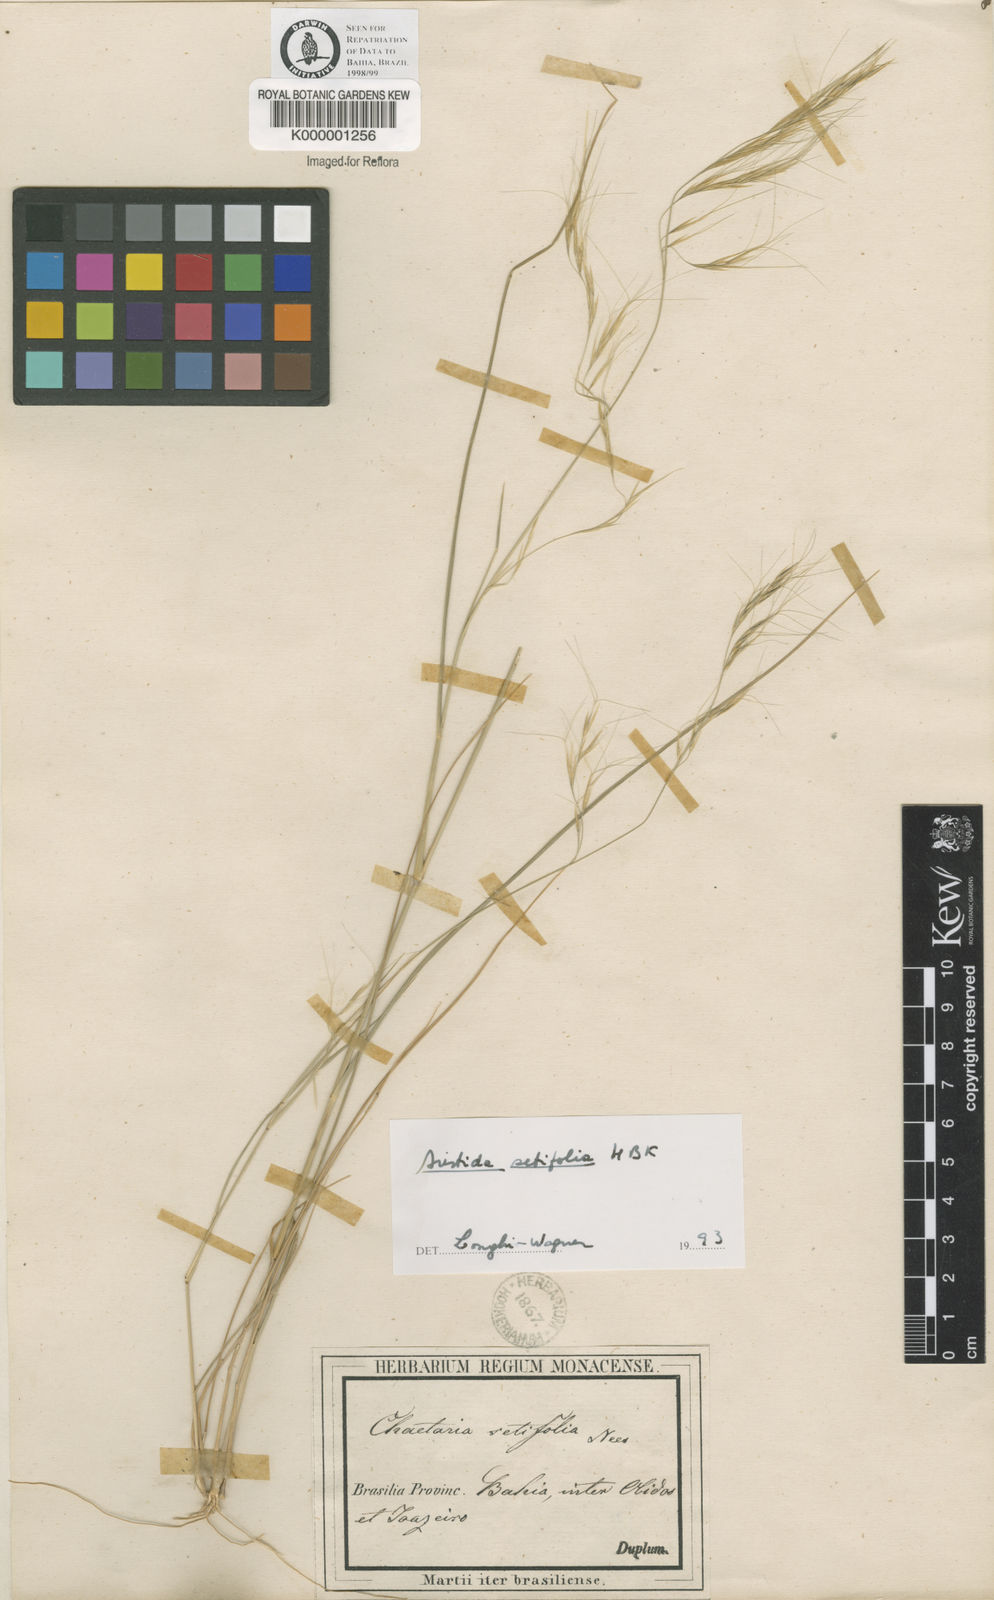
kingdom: Plantae
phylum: Tracheophyta
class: Liliopsida
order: Poales
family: Poaceae
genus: Aristida
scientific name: Aristida setifolia
